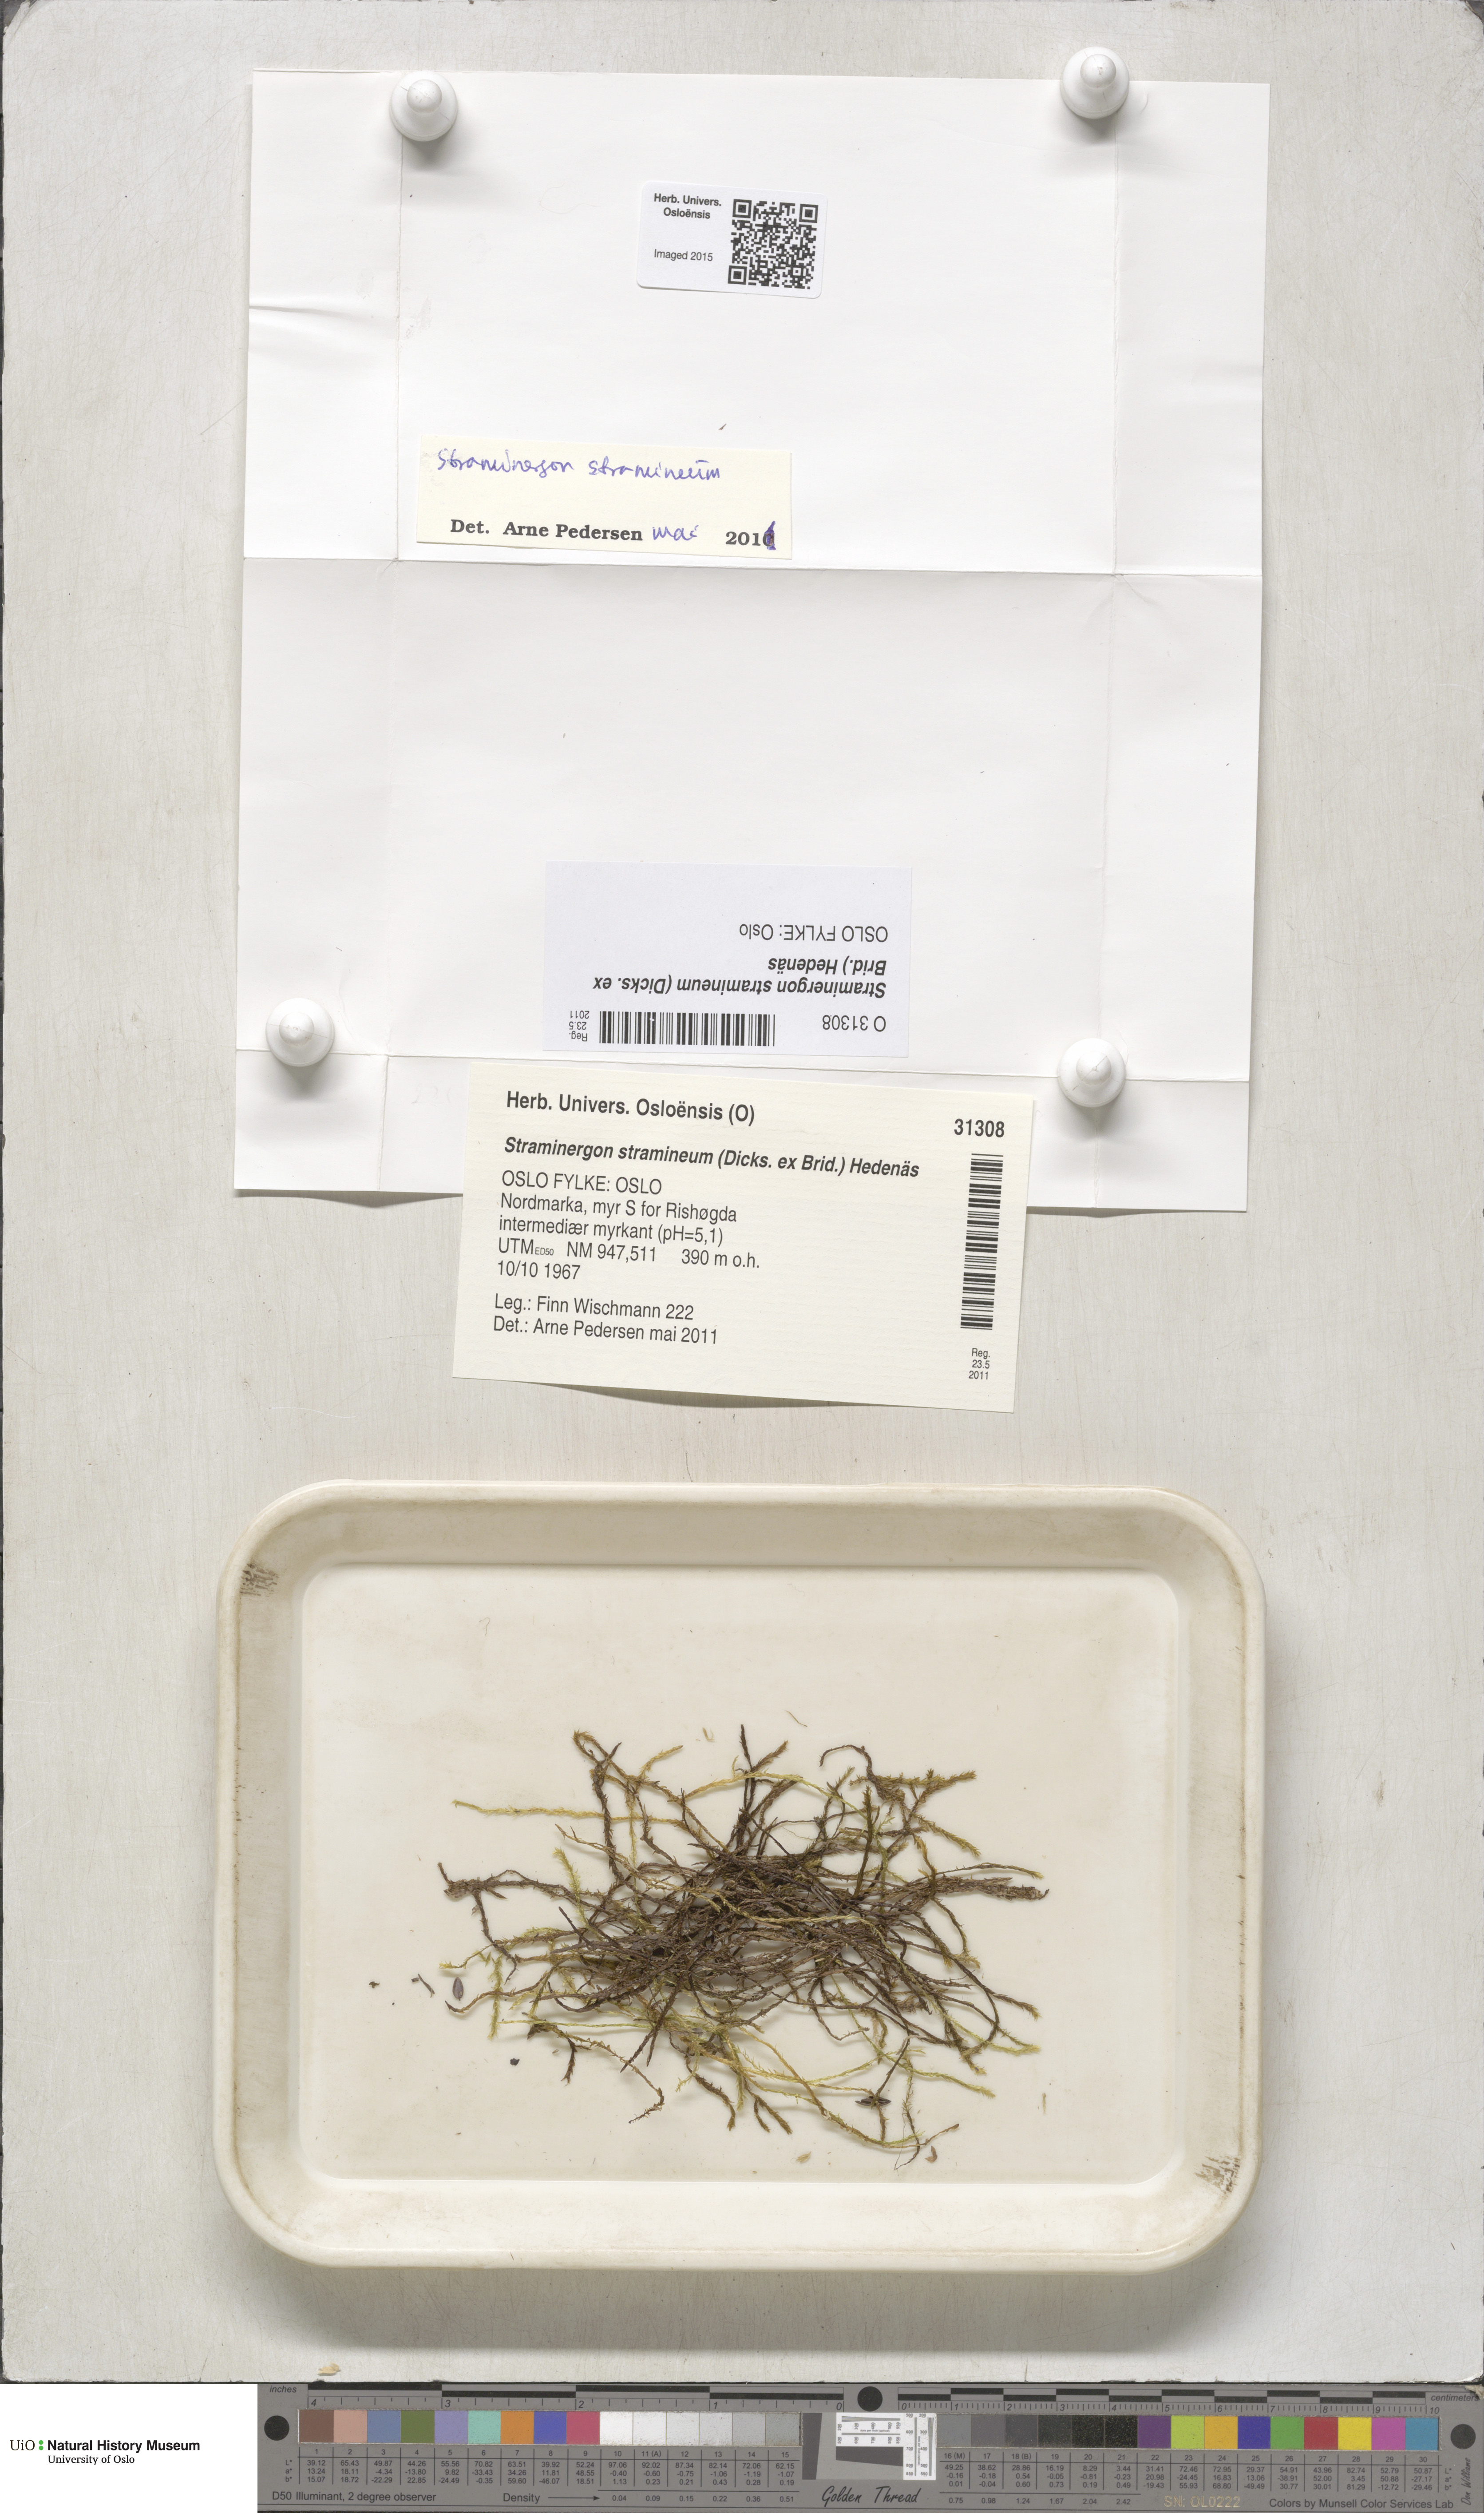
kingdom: Plantae
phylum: Bryophyta
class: Bryopsida
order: Hypnales
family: Calliergonaceae
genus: Straminergon
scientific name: Straminergon stramineum
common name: Straw moss
